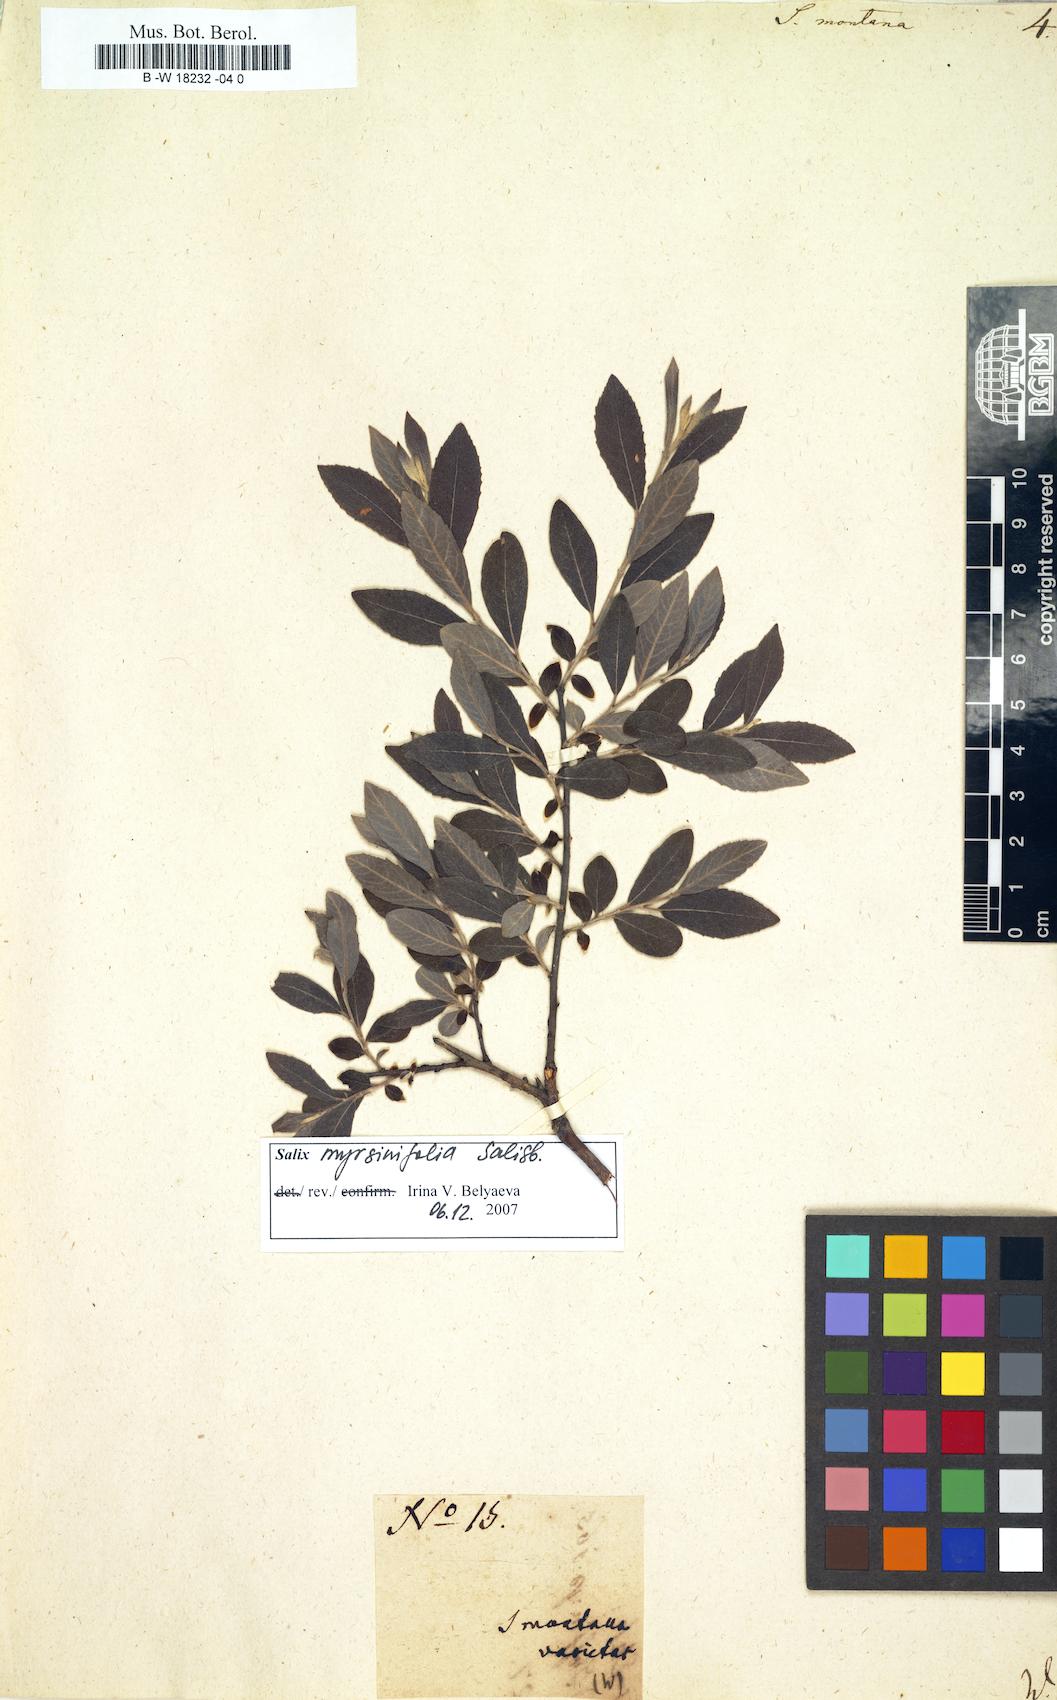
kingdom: Plantae
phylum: Tracheophyta
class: Magnoliopsida
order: Malpighiales
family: Salicaceae
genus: Salix
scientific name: Salix montana
